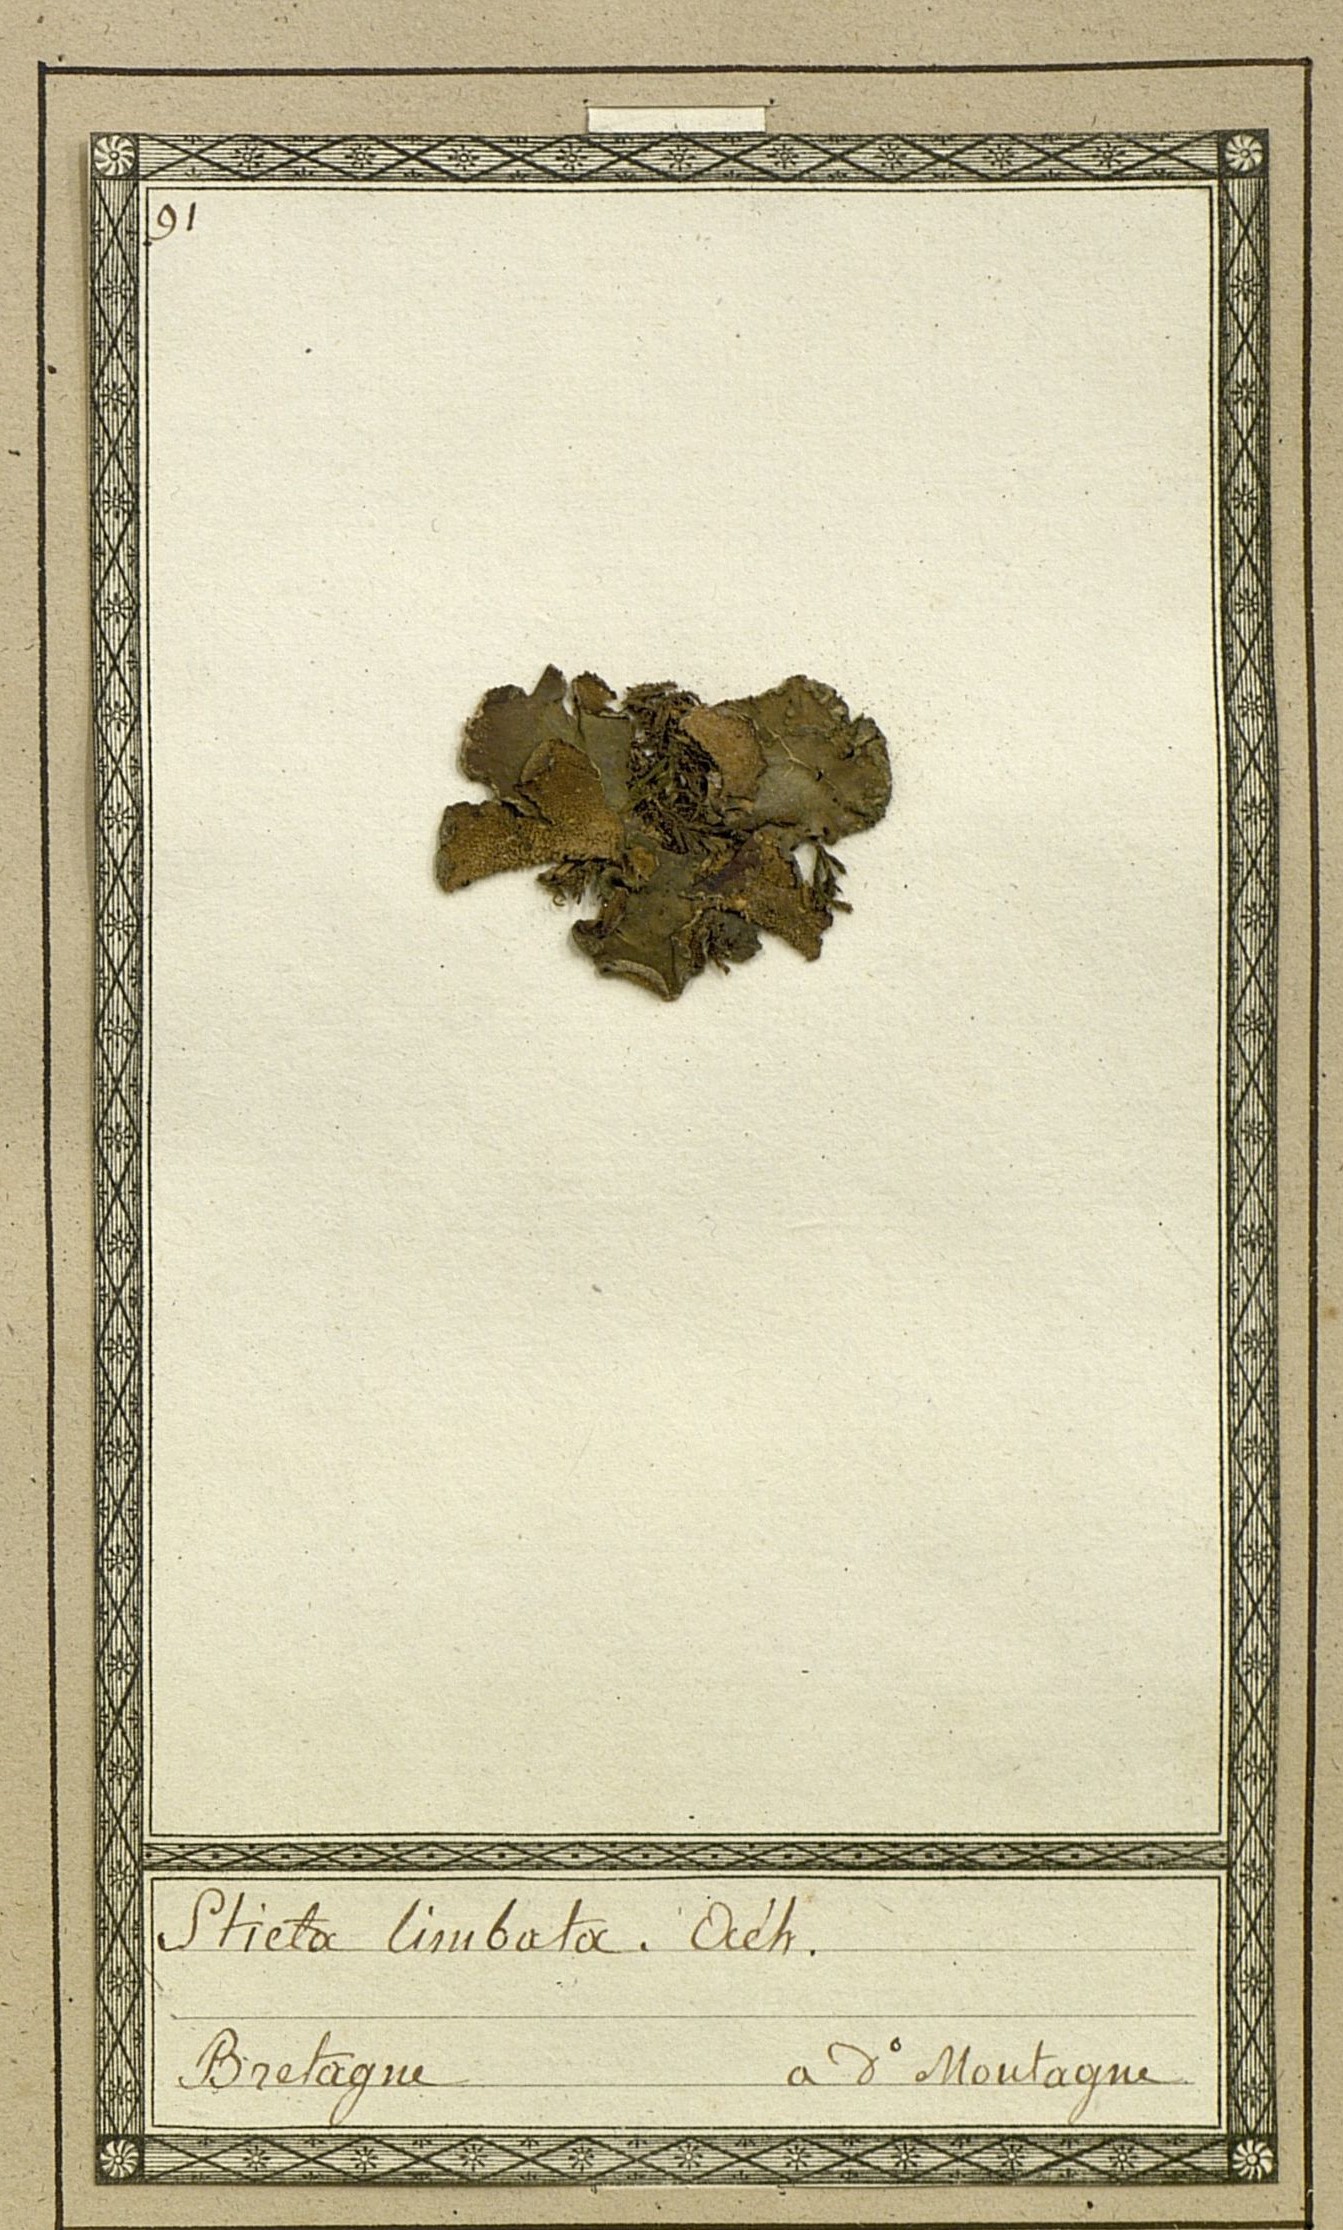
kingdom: Fungi
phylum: Ascomycota
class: Lecanoromycetes
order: Lecanorales
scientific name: Lecanorales
